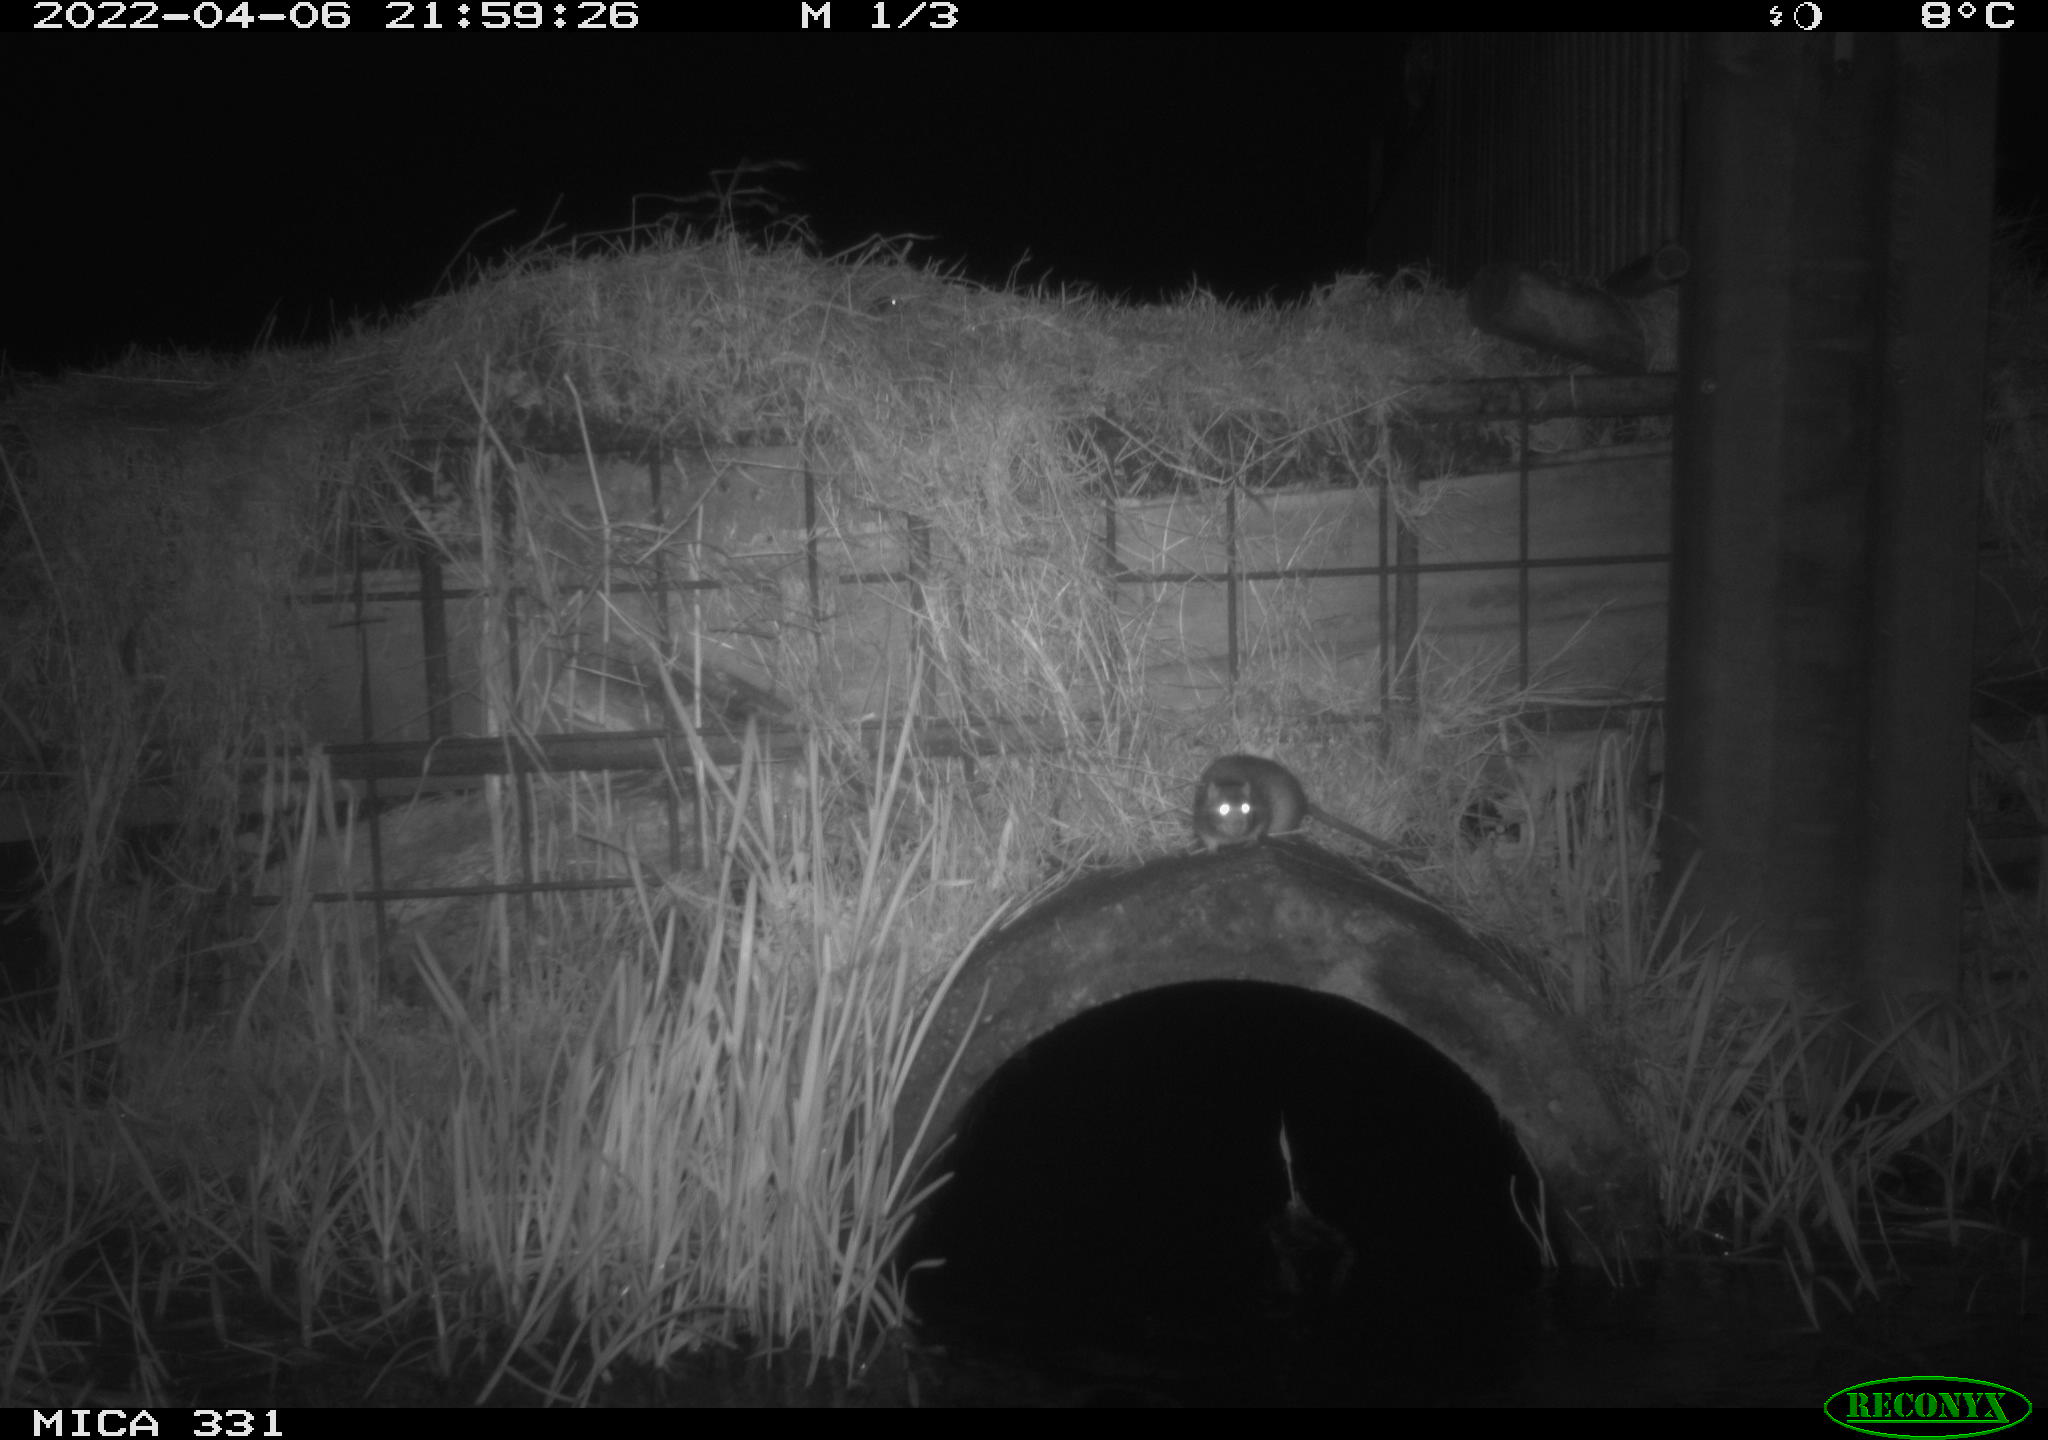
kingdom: Animalia
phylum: Chordata
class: Mammalia
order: Rodentia
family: Muridae
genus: Rattus
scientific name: Rattus norvegicus
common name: Brown rat
